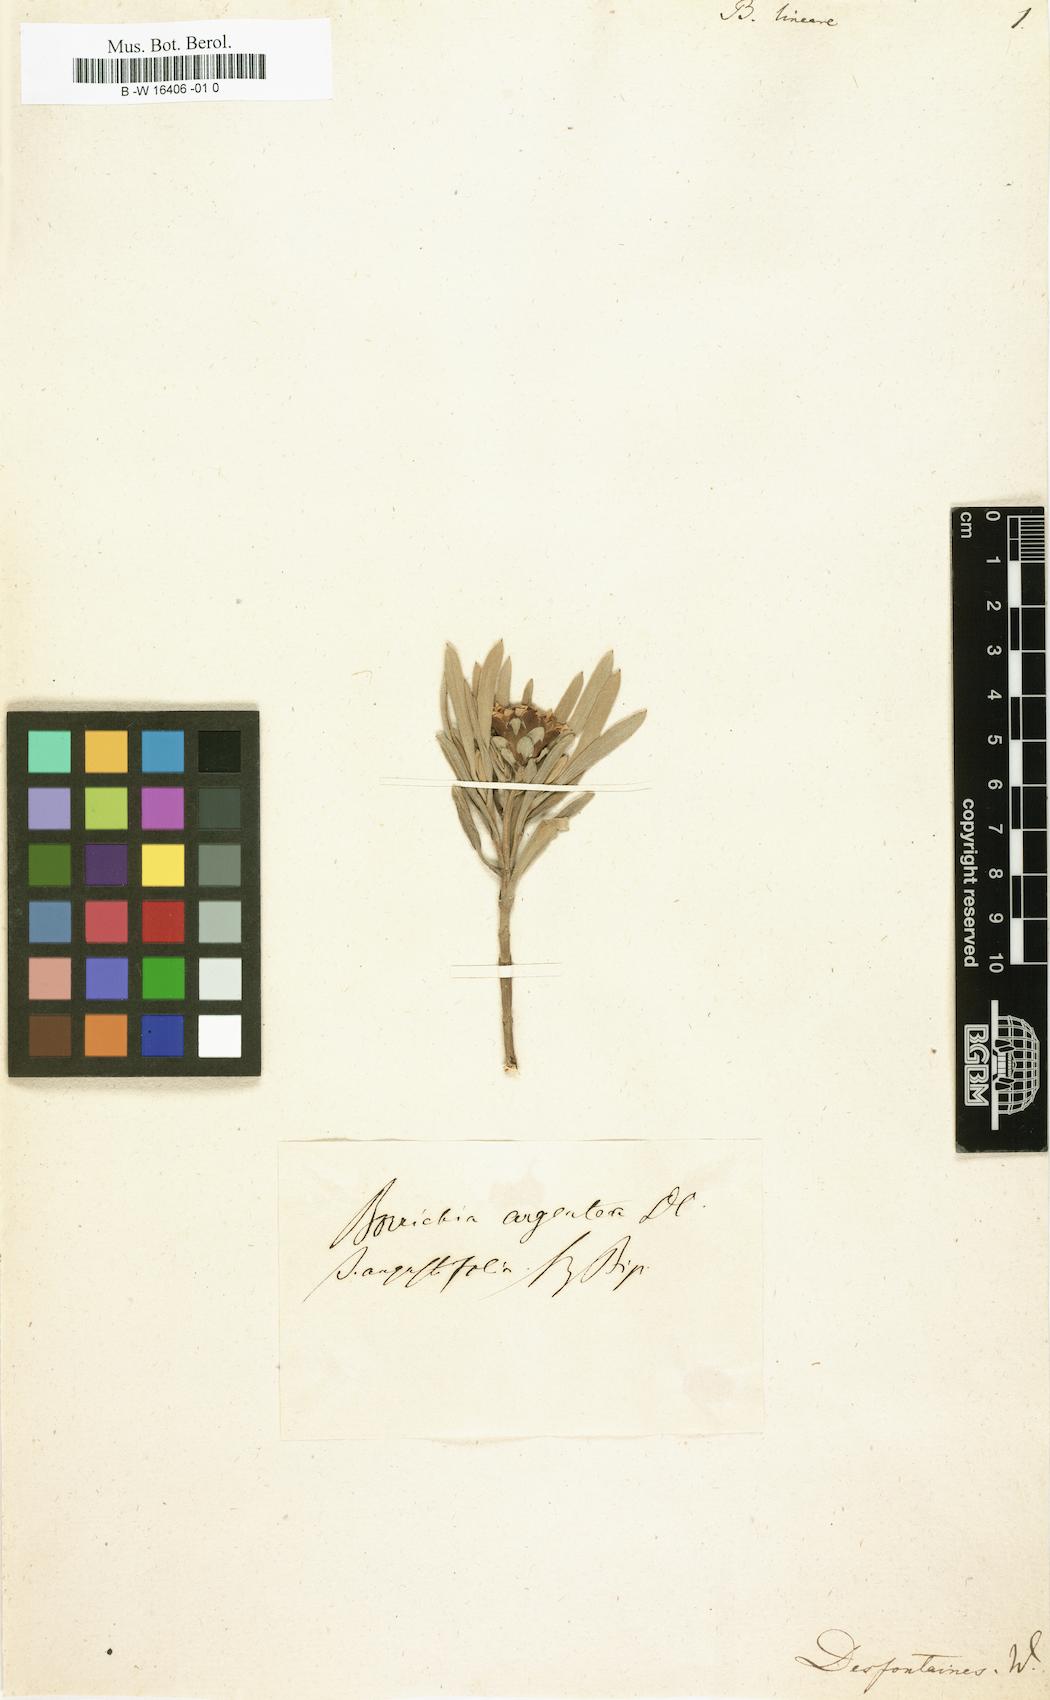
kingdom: Plantae
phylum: Tracheophyta
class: Magnoliopsida
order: Asterales
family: Asteraceae
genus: Borrichia
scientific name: Borrichia peruviana
